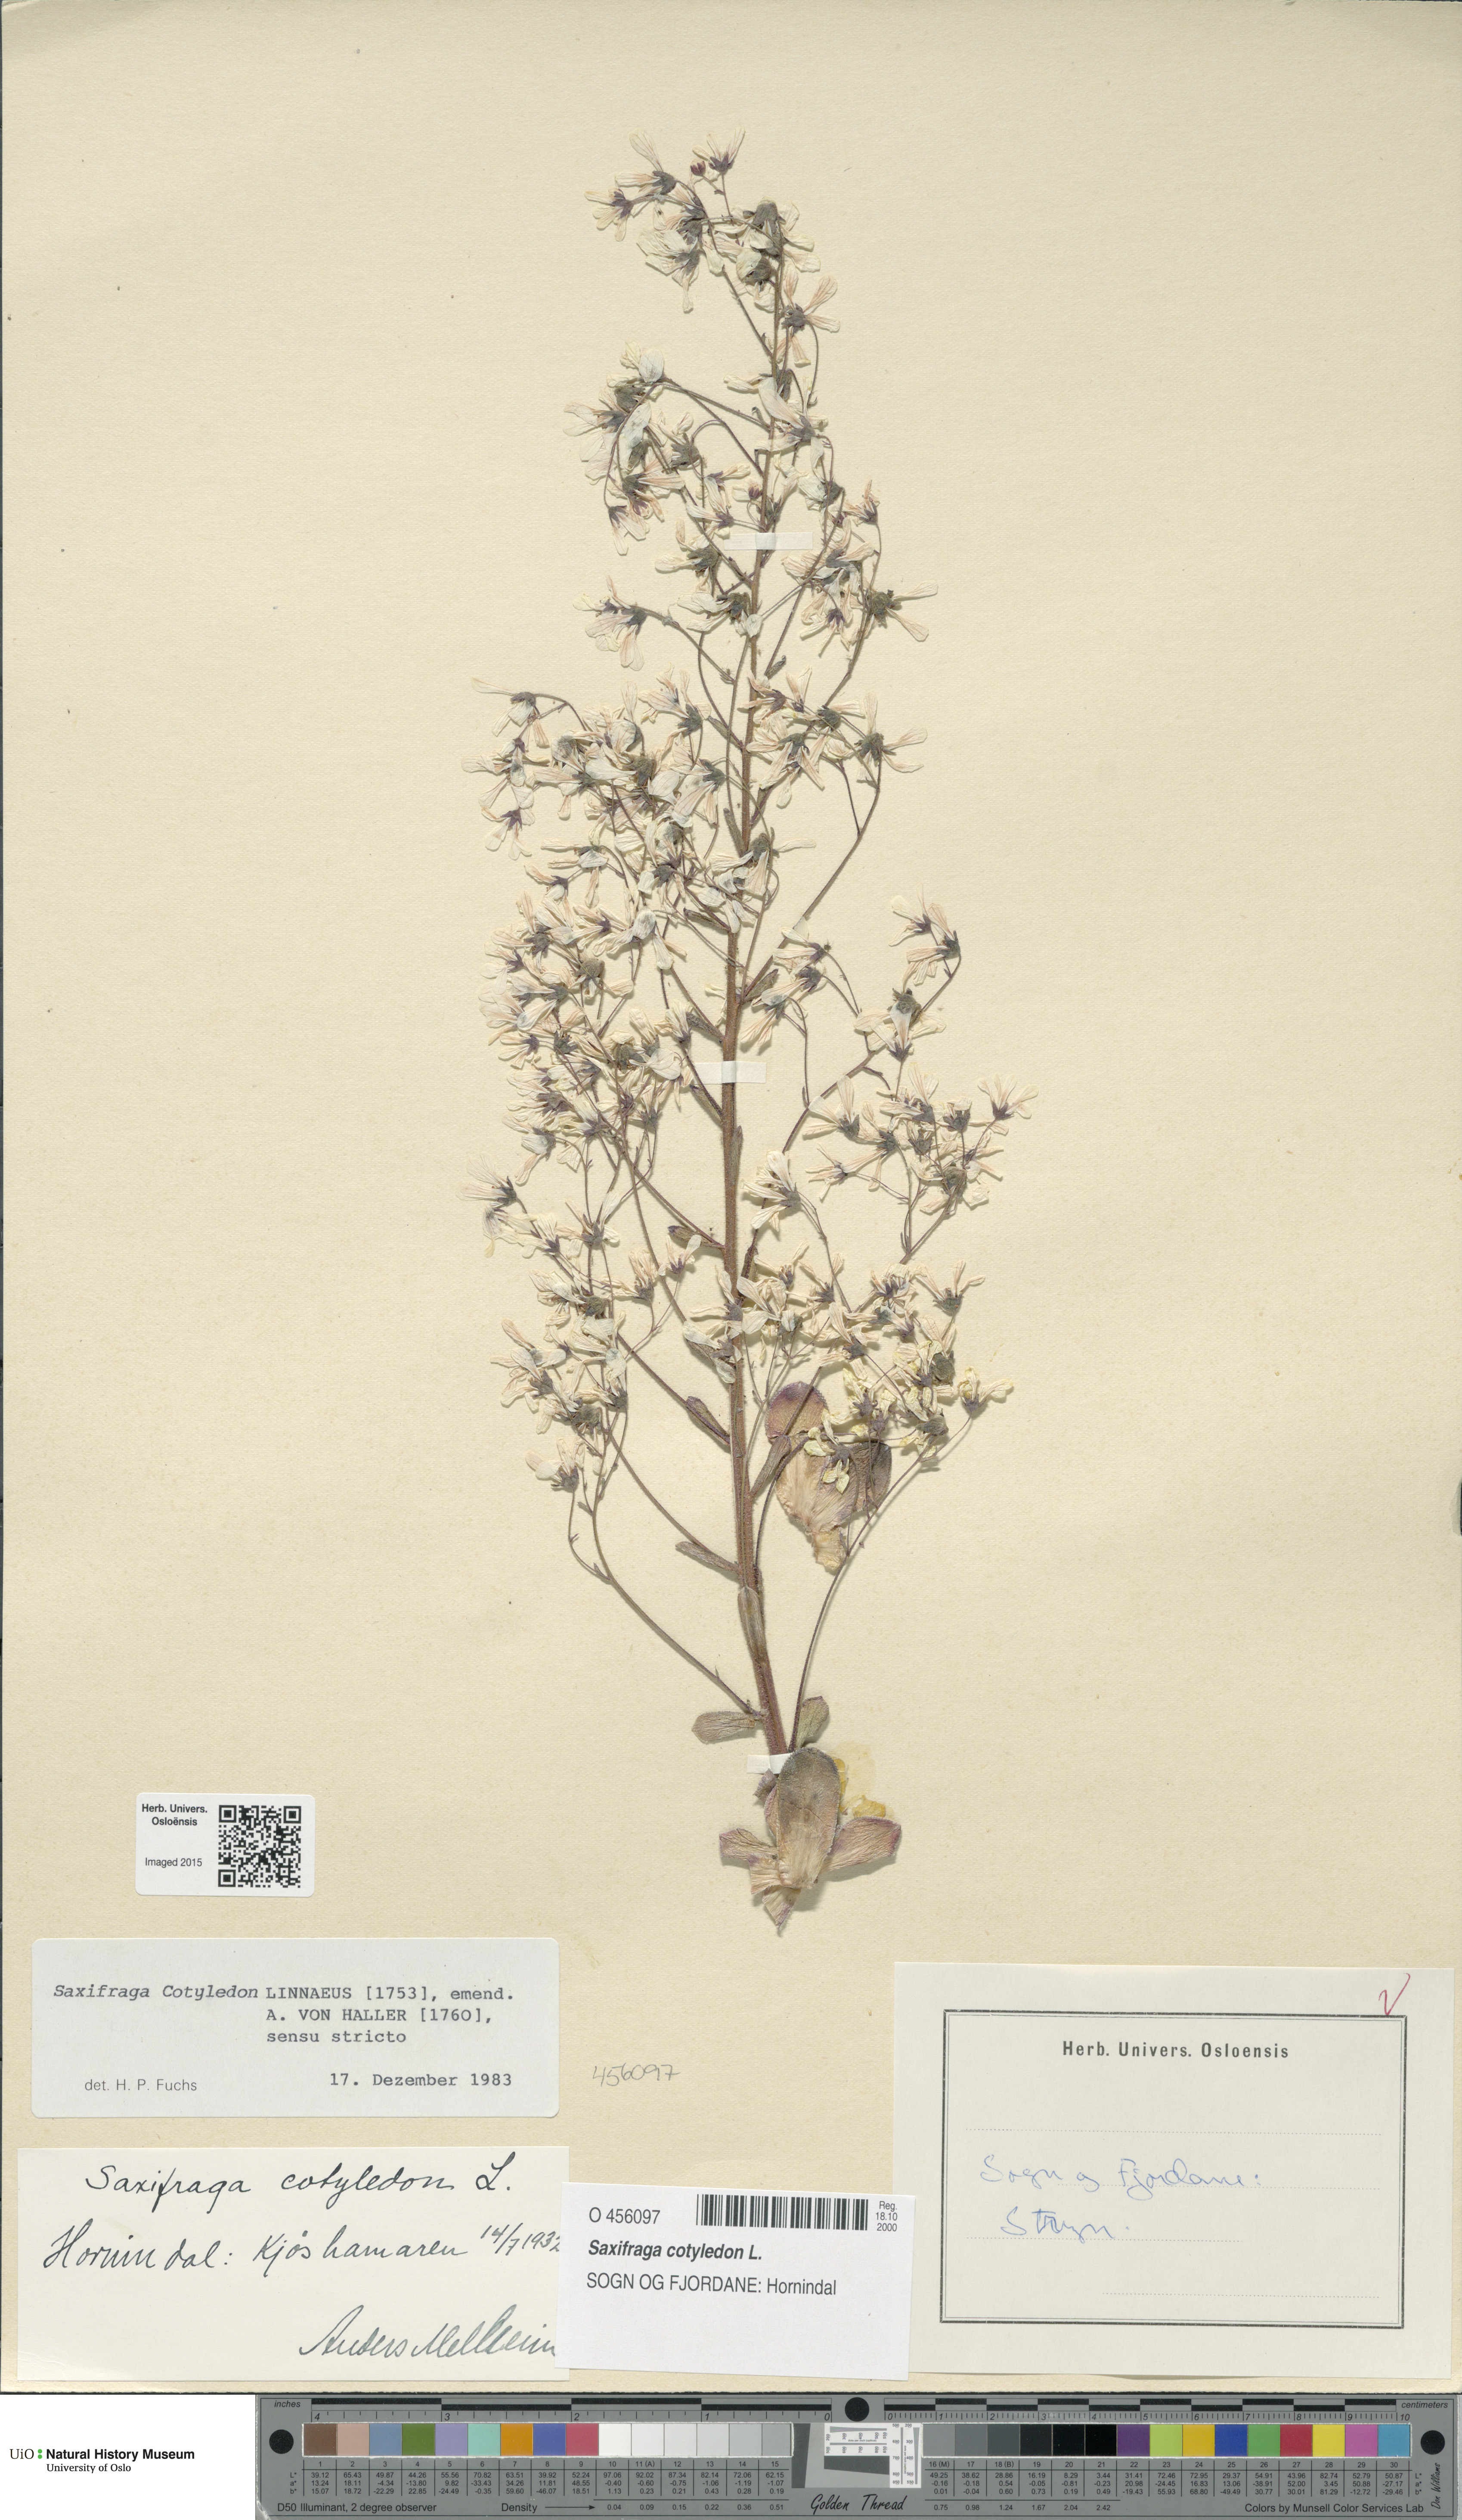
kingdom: Plantae
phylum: Tracheophyta
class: Magnoliopsida
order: Saxifragales
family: Saxifragaceae
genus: Saxifraga
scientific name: Saxifraga cotyledon
